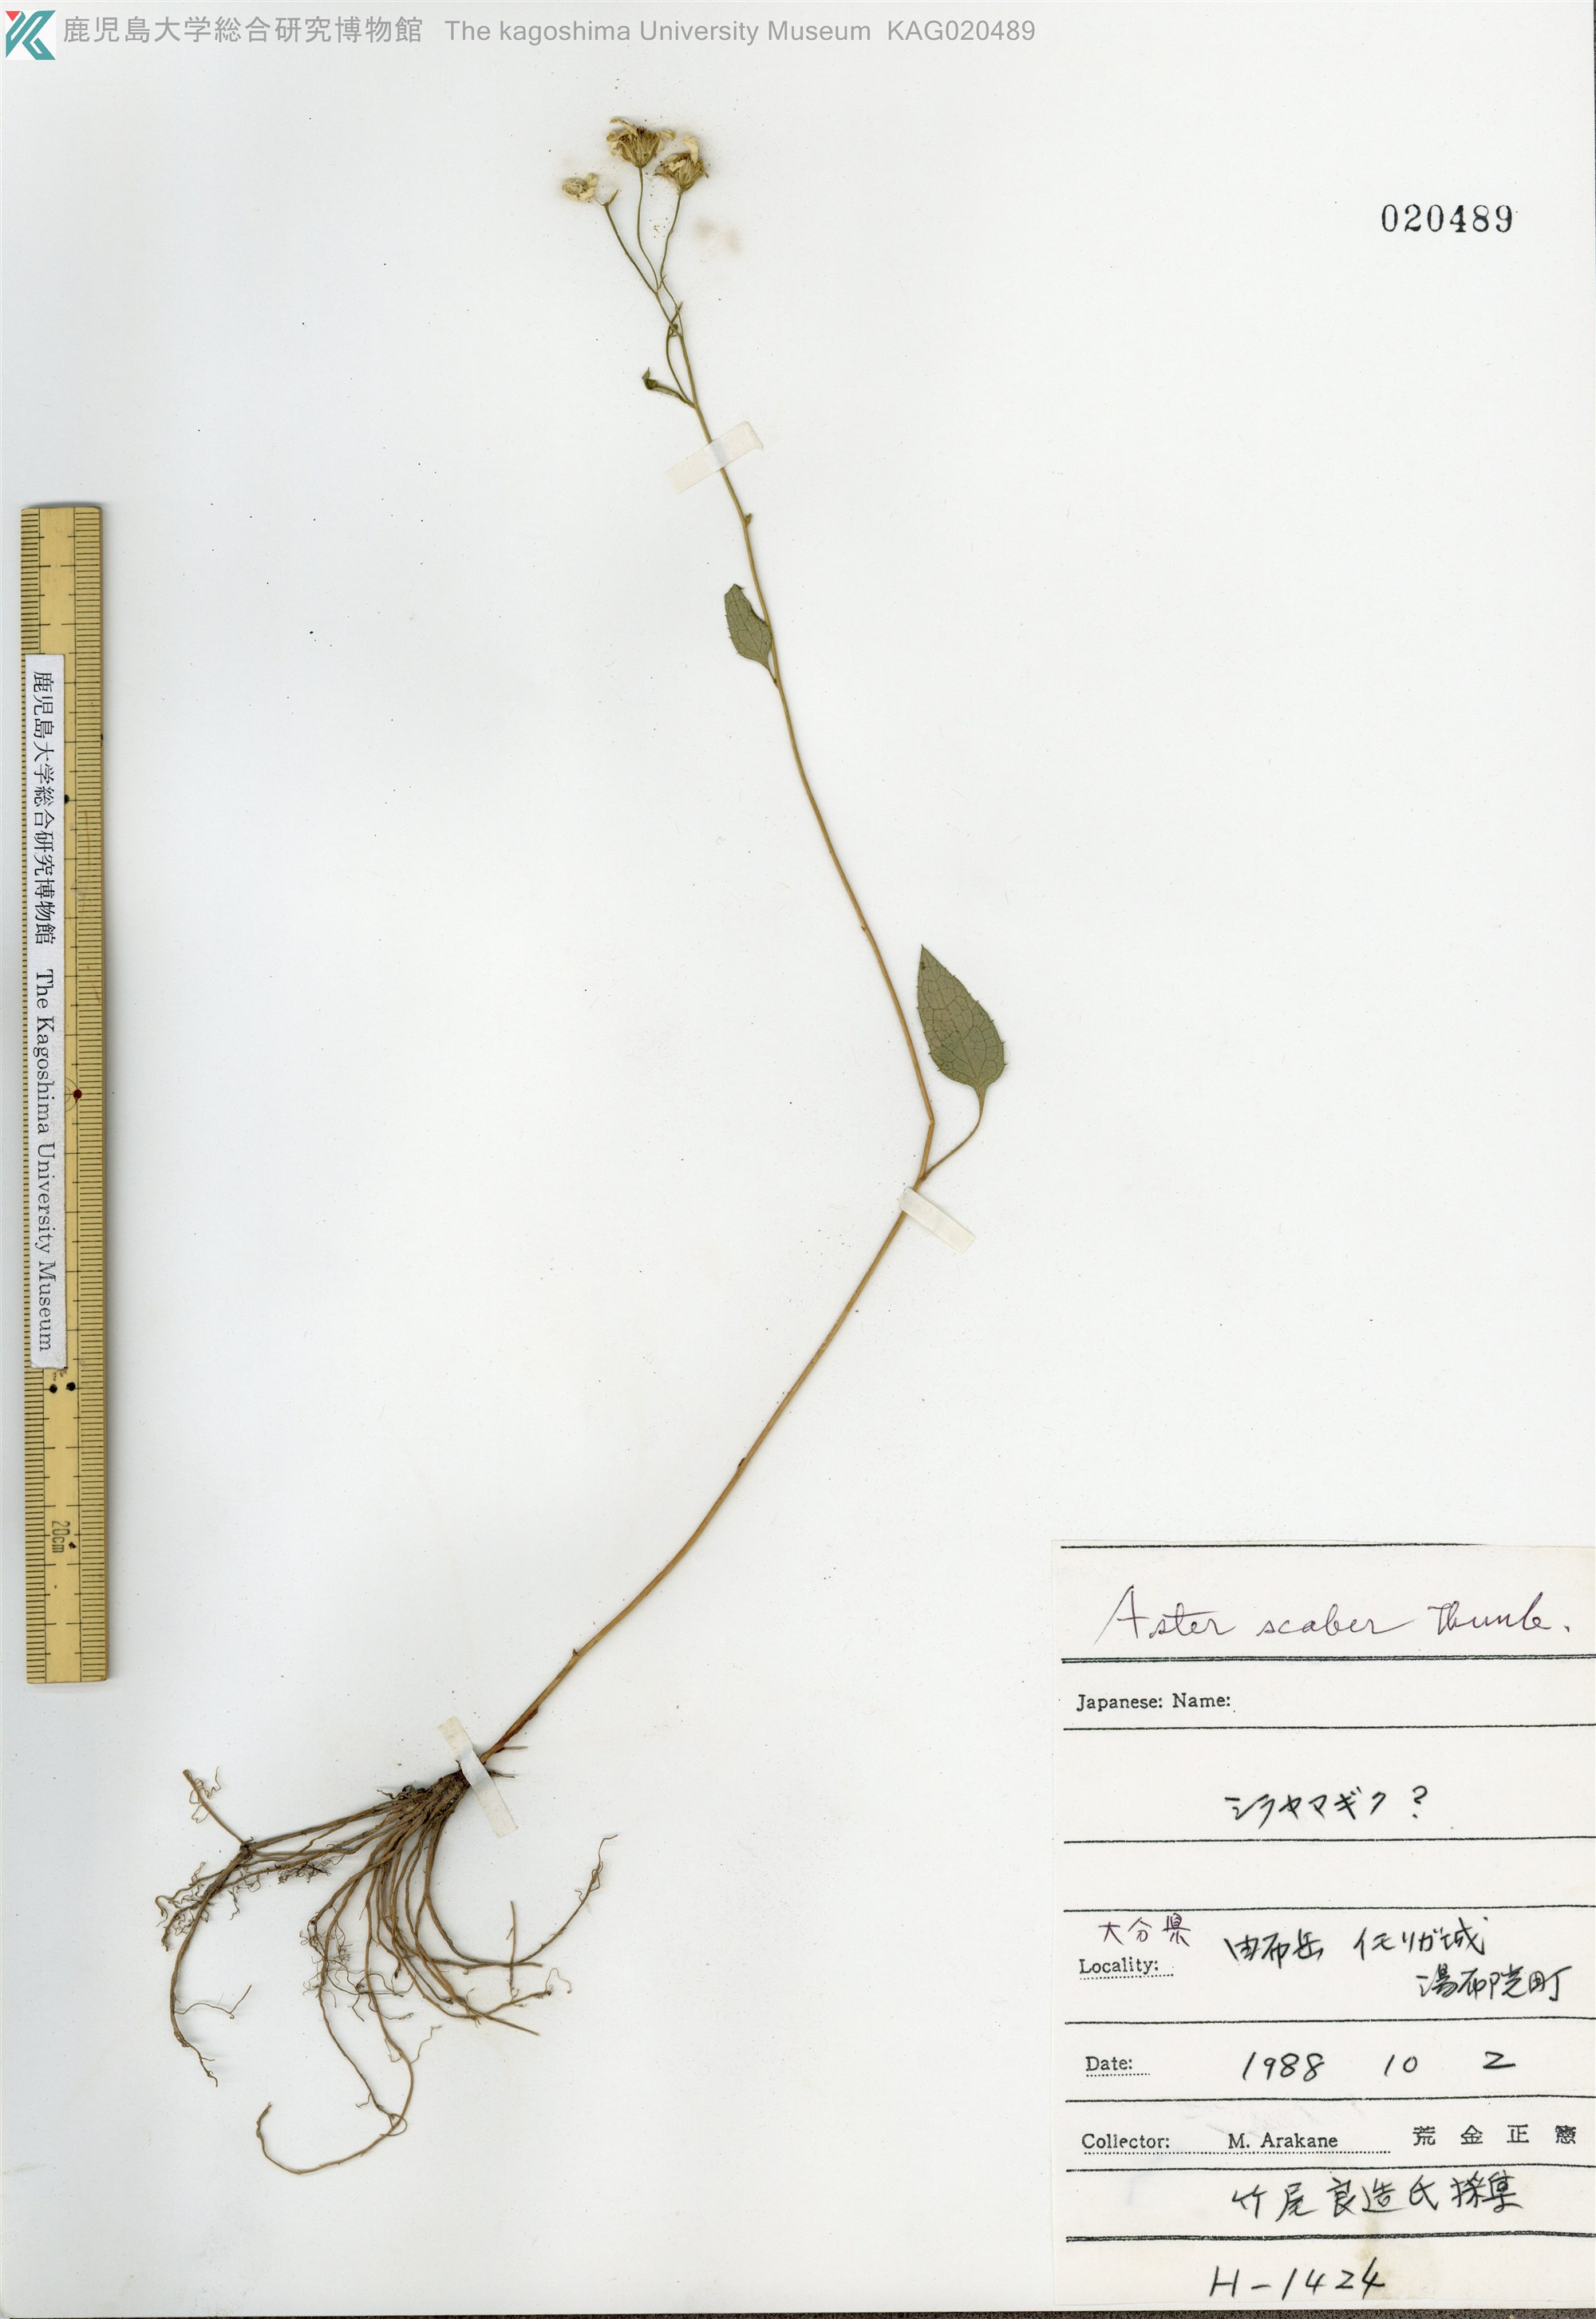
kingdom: Plantae
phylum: Tracheophyta
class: Magnoliopsida
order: Asterales
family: Asteraceae
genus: Cardiagyris
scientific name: Cardiagyris scabra
